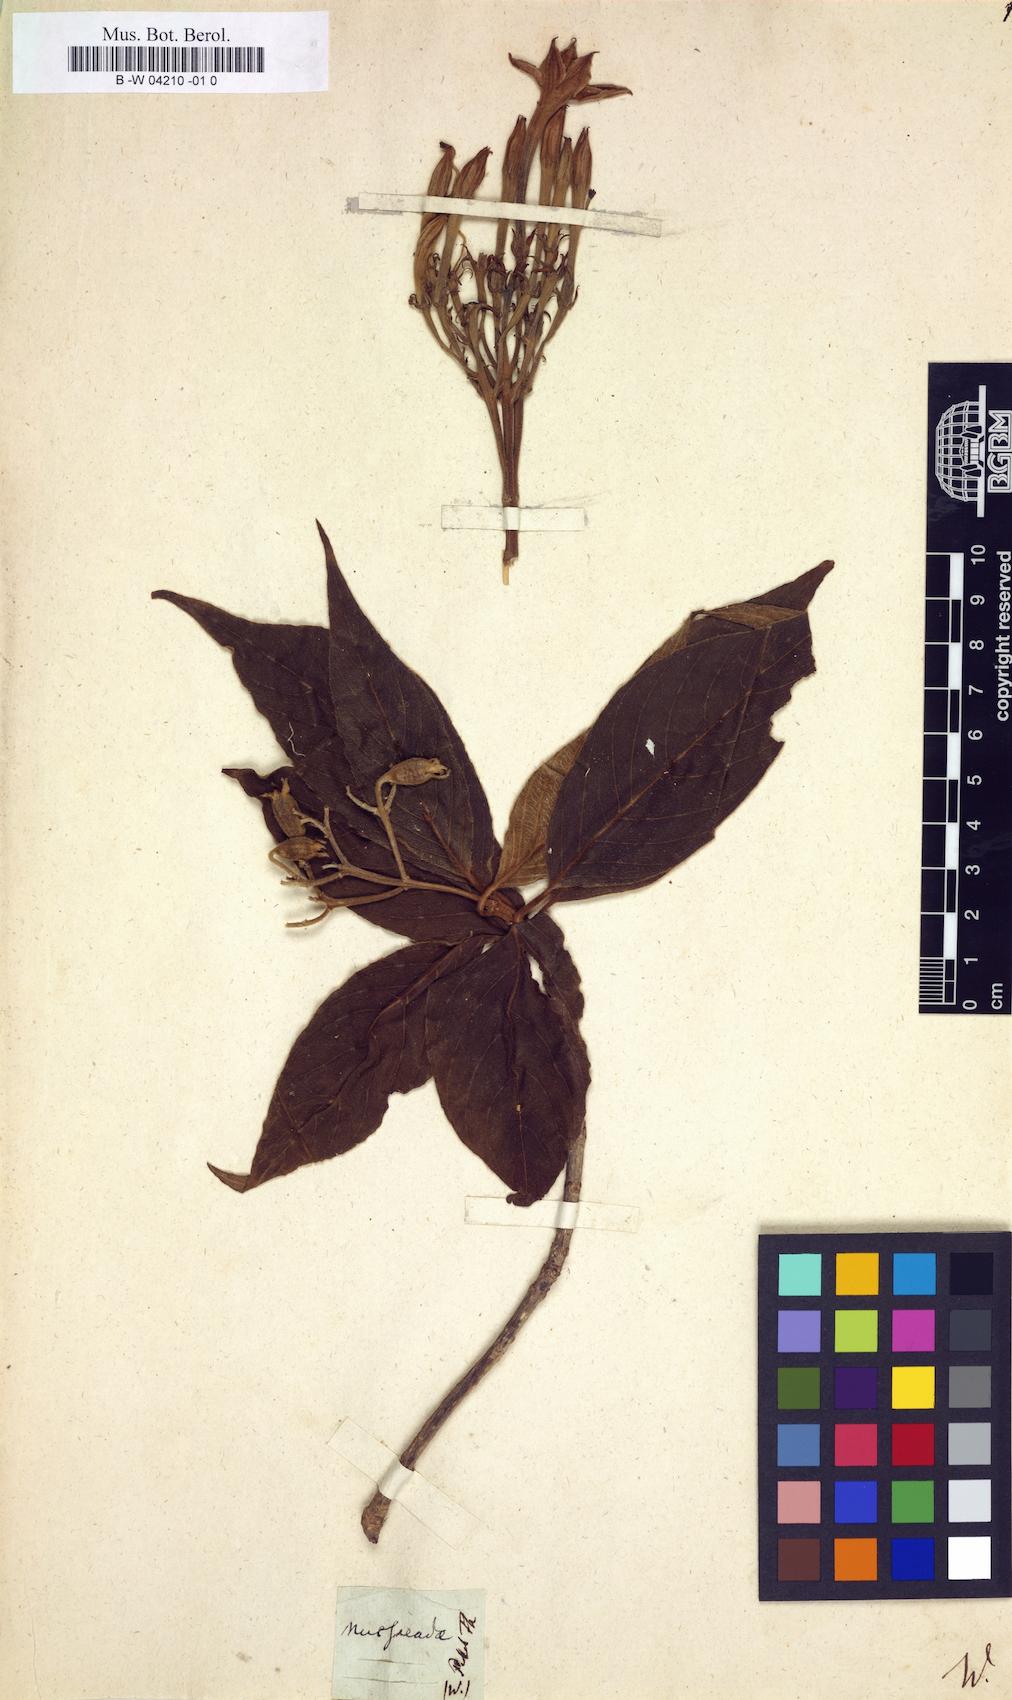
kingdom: Plantae
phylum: Tracheophyta
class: Magnoliopsida
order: Gentianales
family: Rubiaceae
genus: Mussaenda
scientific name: Mussaenda
